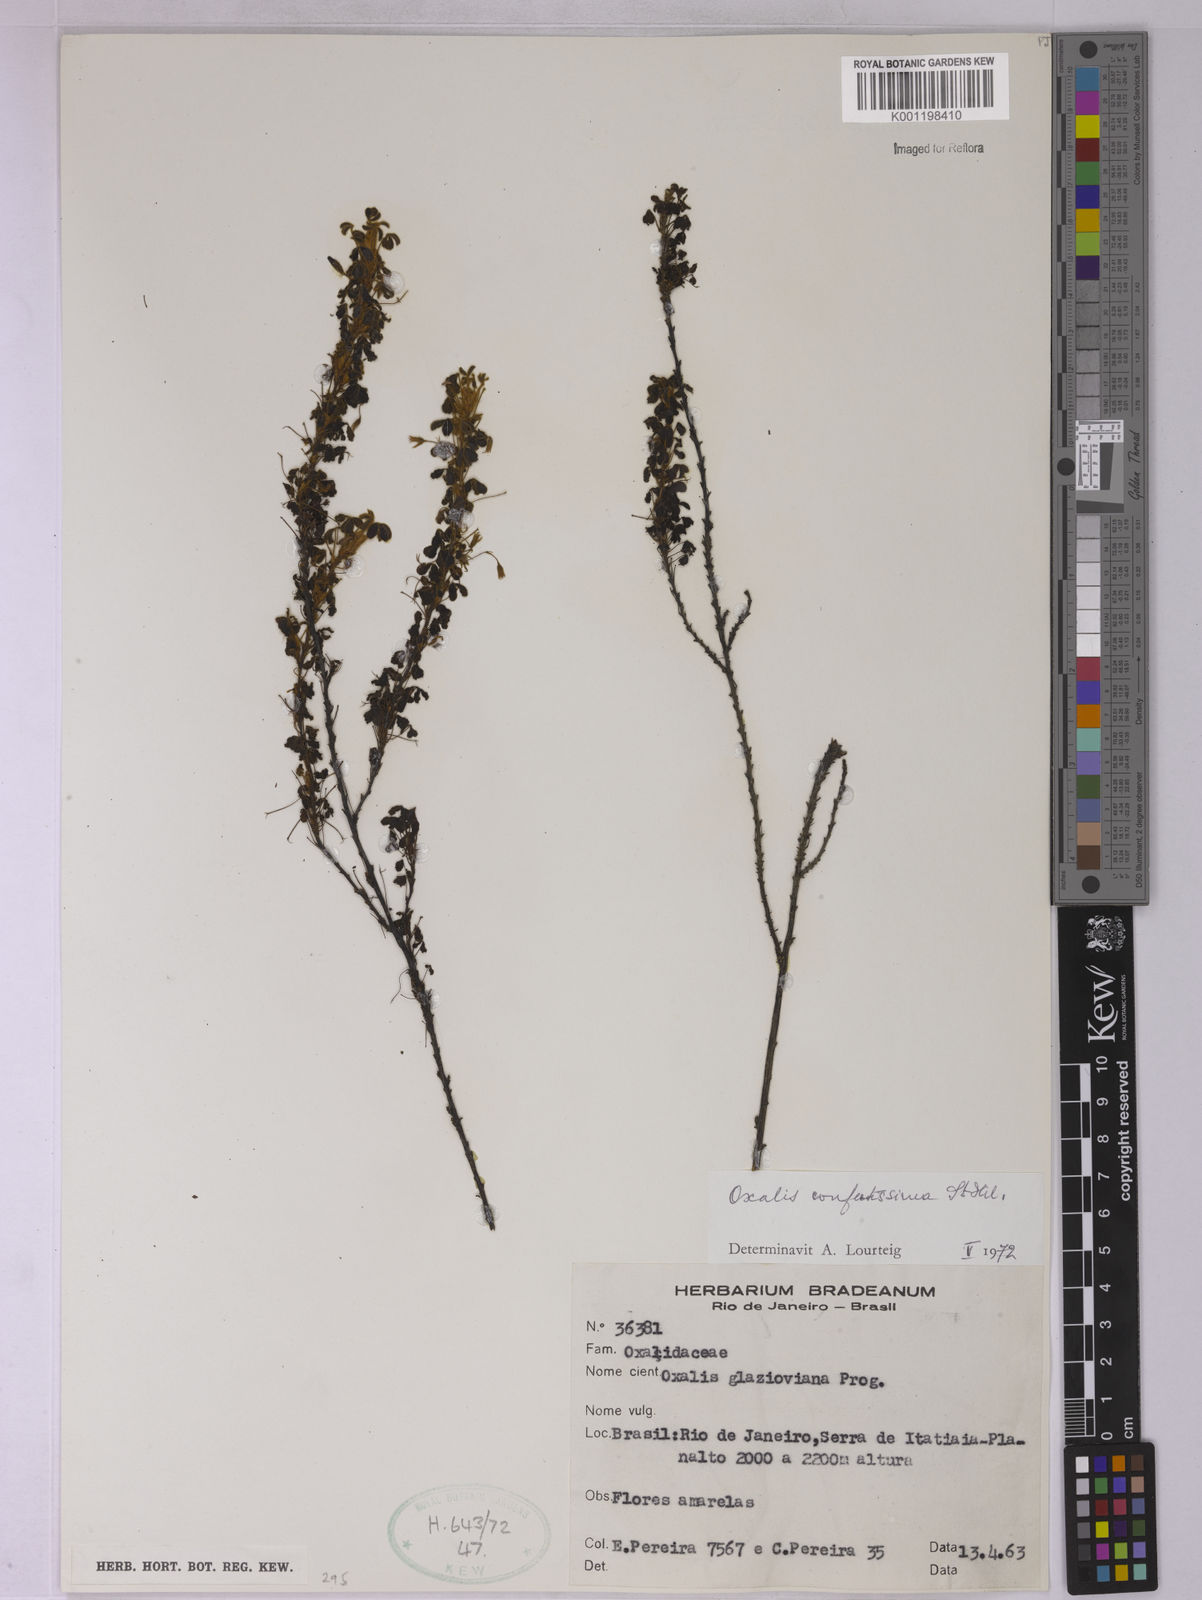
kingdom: Plantae
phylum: Tracheophyta
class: Magnoliopsida
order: Oxalidales
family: Oxalidaceae
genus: Oxalis
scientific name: Oxalis confertissima
